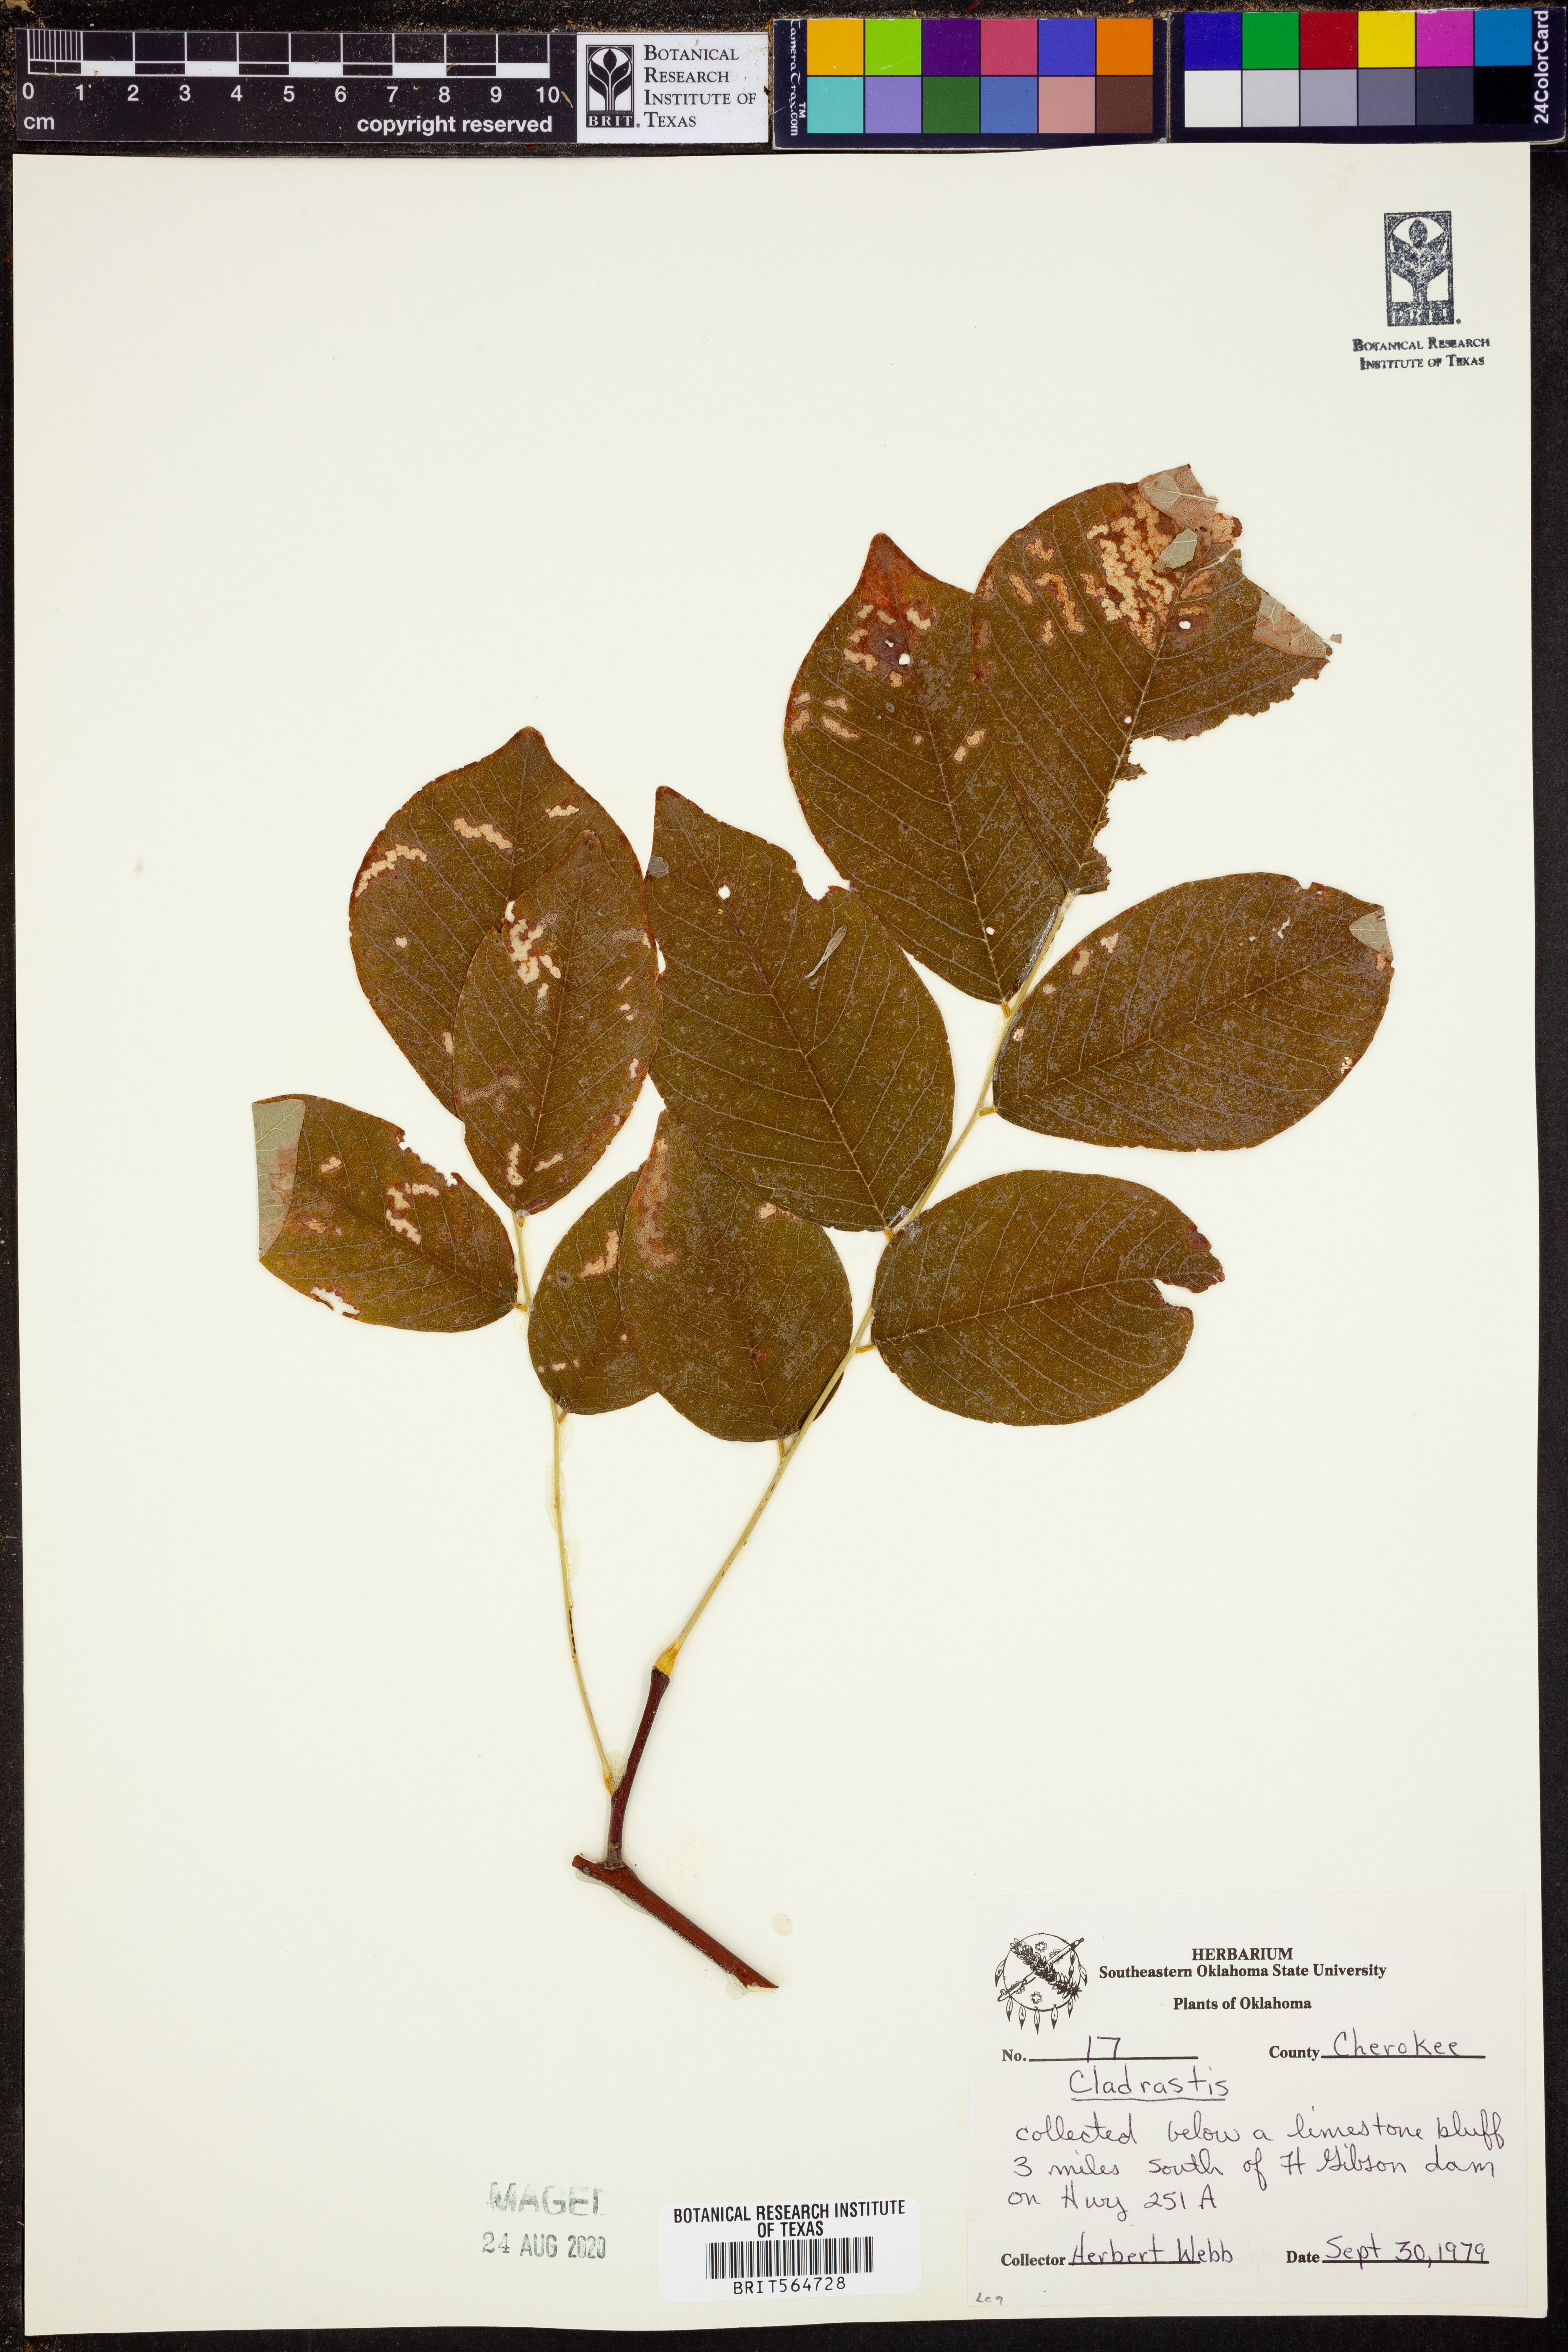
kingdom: Plantae
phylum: Tracheophyta
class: Magnoliopsida
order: Fabales
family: Fabaceae
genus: Cladrastis
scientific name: Cladrastis
